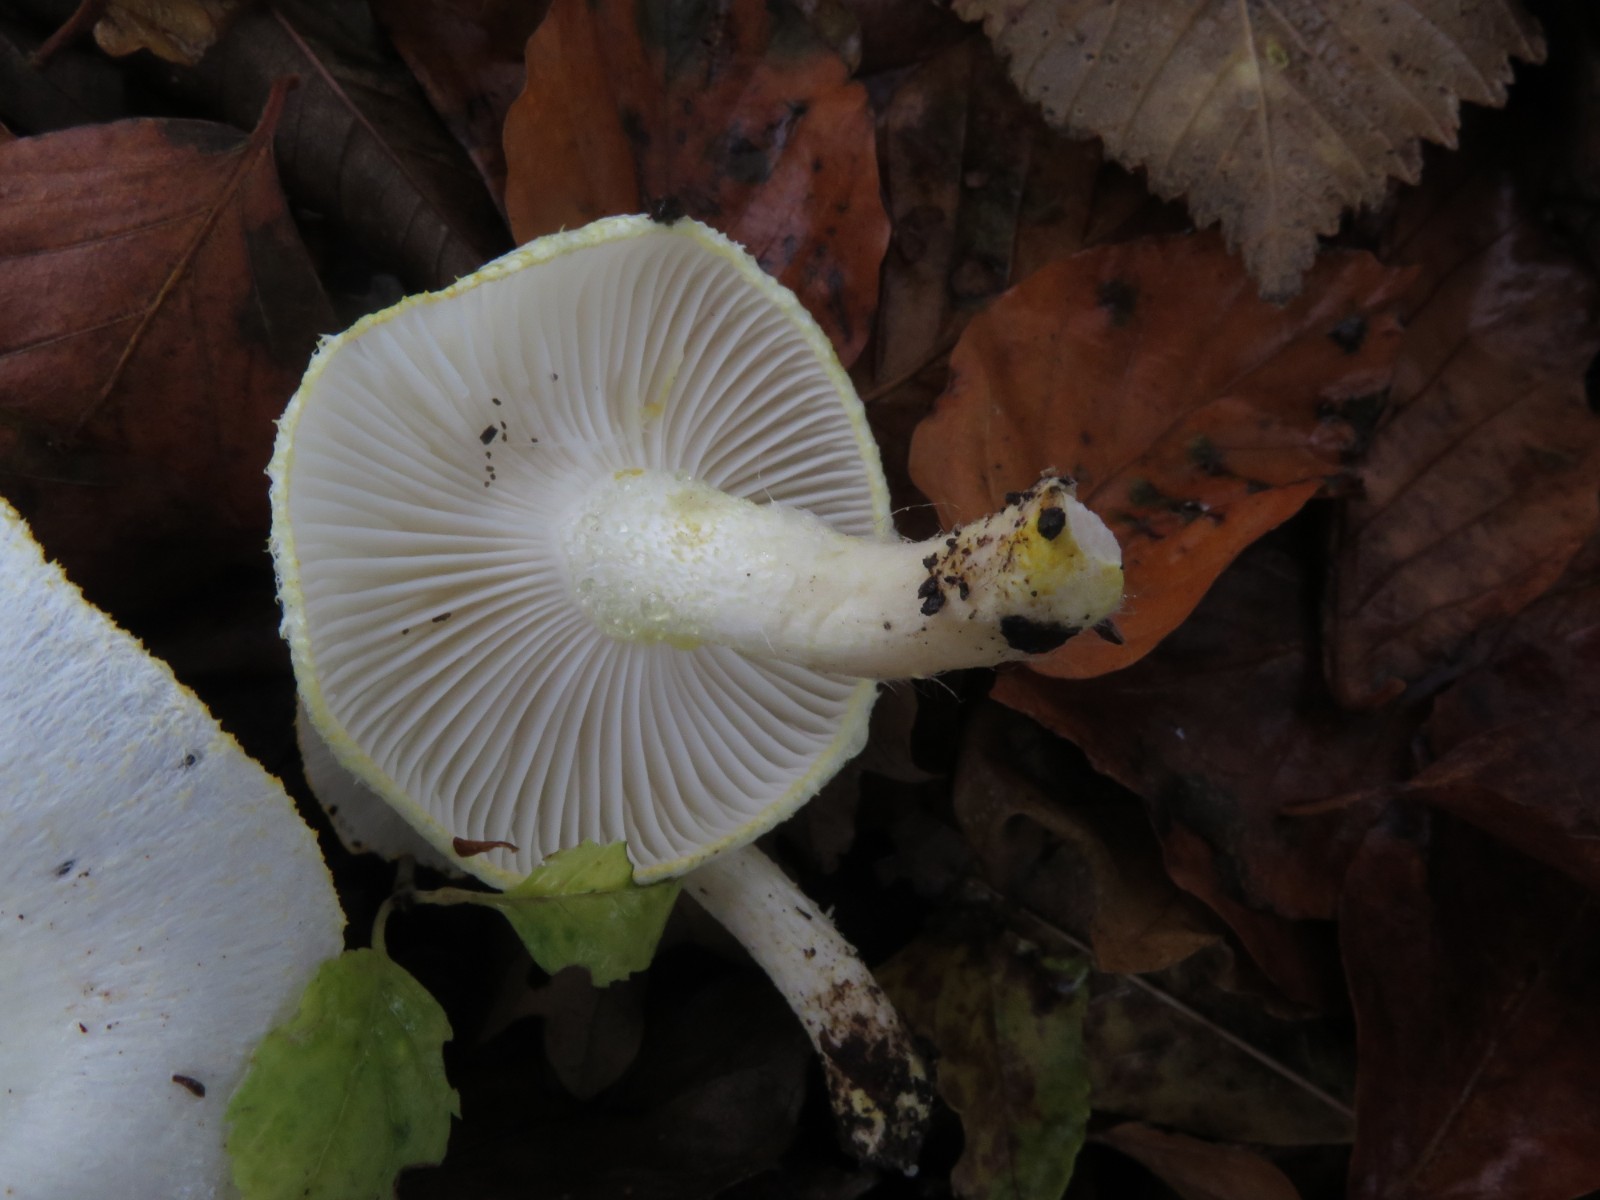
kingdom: Fungi
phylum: Basidiomycota
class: Agaricomycetes
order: Agaricales
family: Hygrophoraceae
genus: Hygrophorus
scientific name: Hygrophorus chrysodon
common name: gulfnugget sneglehat
